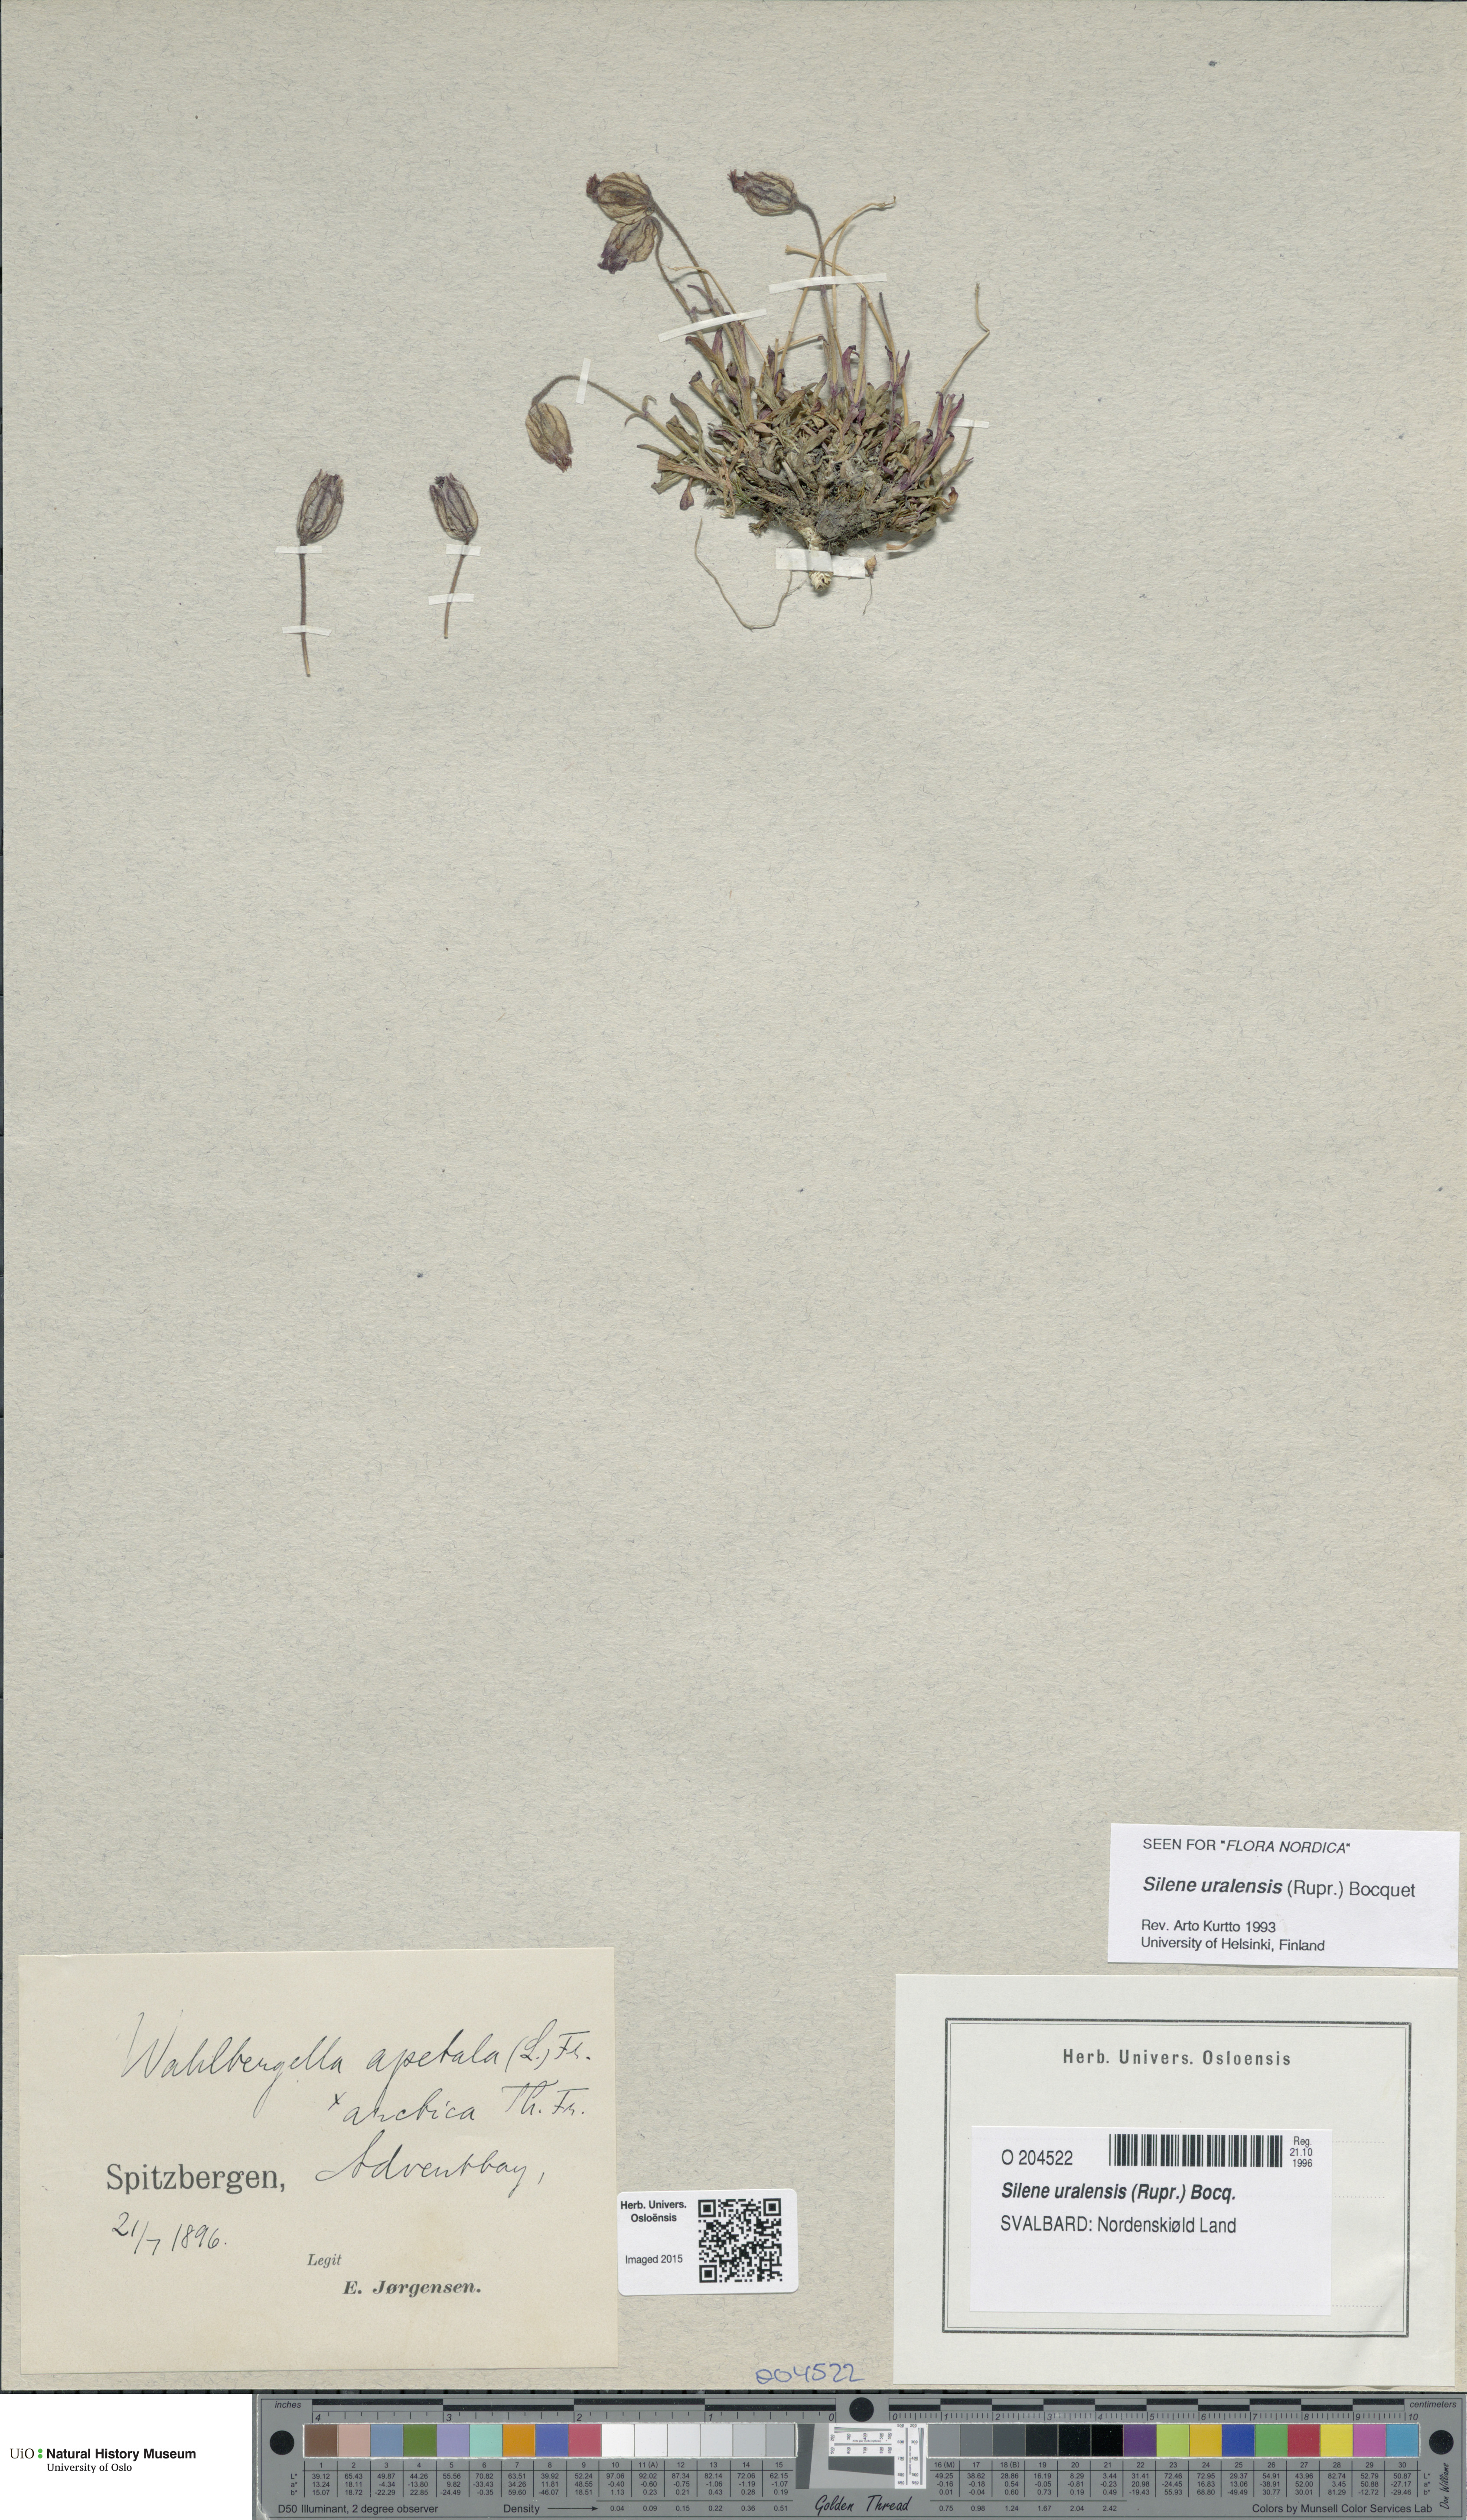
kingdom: Plantae
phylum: Tracheophyta
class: Magnoliopsida
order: Caryophyllales
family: Caryophyllaceae
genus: Silene
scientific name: Silene uralensis
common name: Nodding campion
